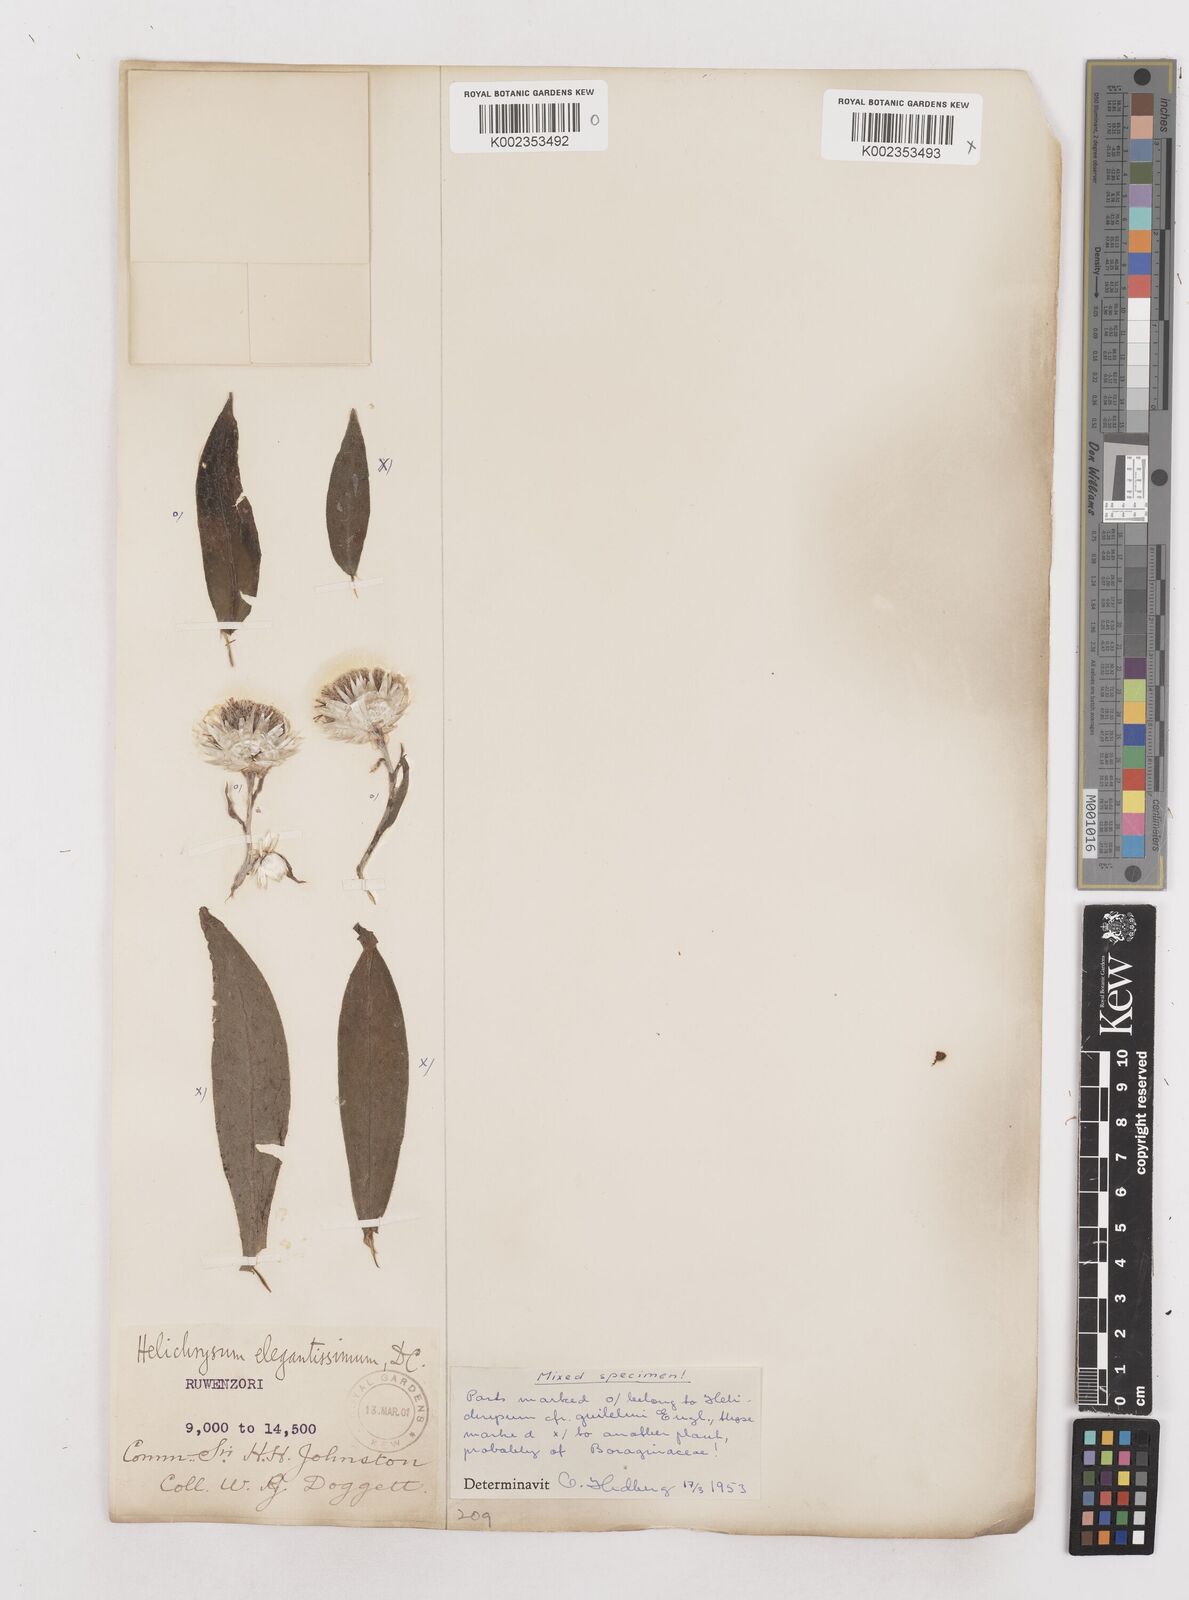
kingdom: Plantae
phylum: Tracheophyta
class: Magnoliopsida
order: Asterales
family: Asteraceae
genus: Helichrysum
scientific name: Helichrysum formosissimum
